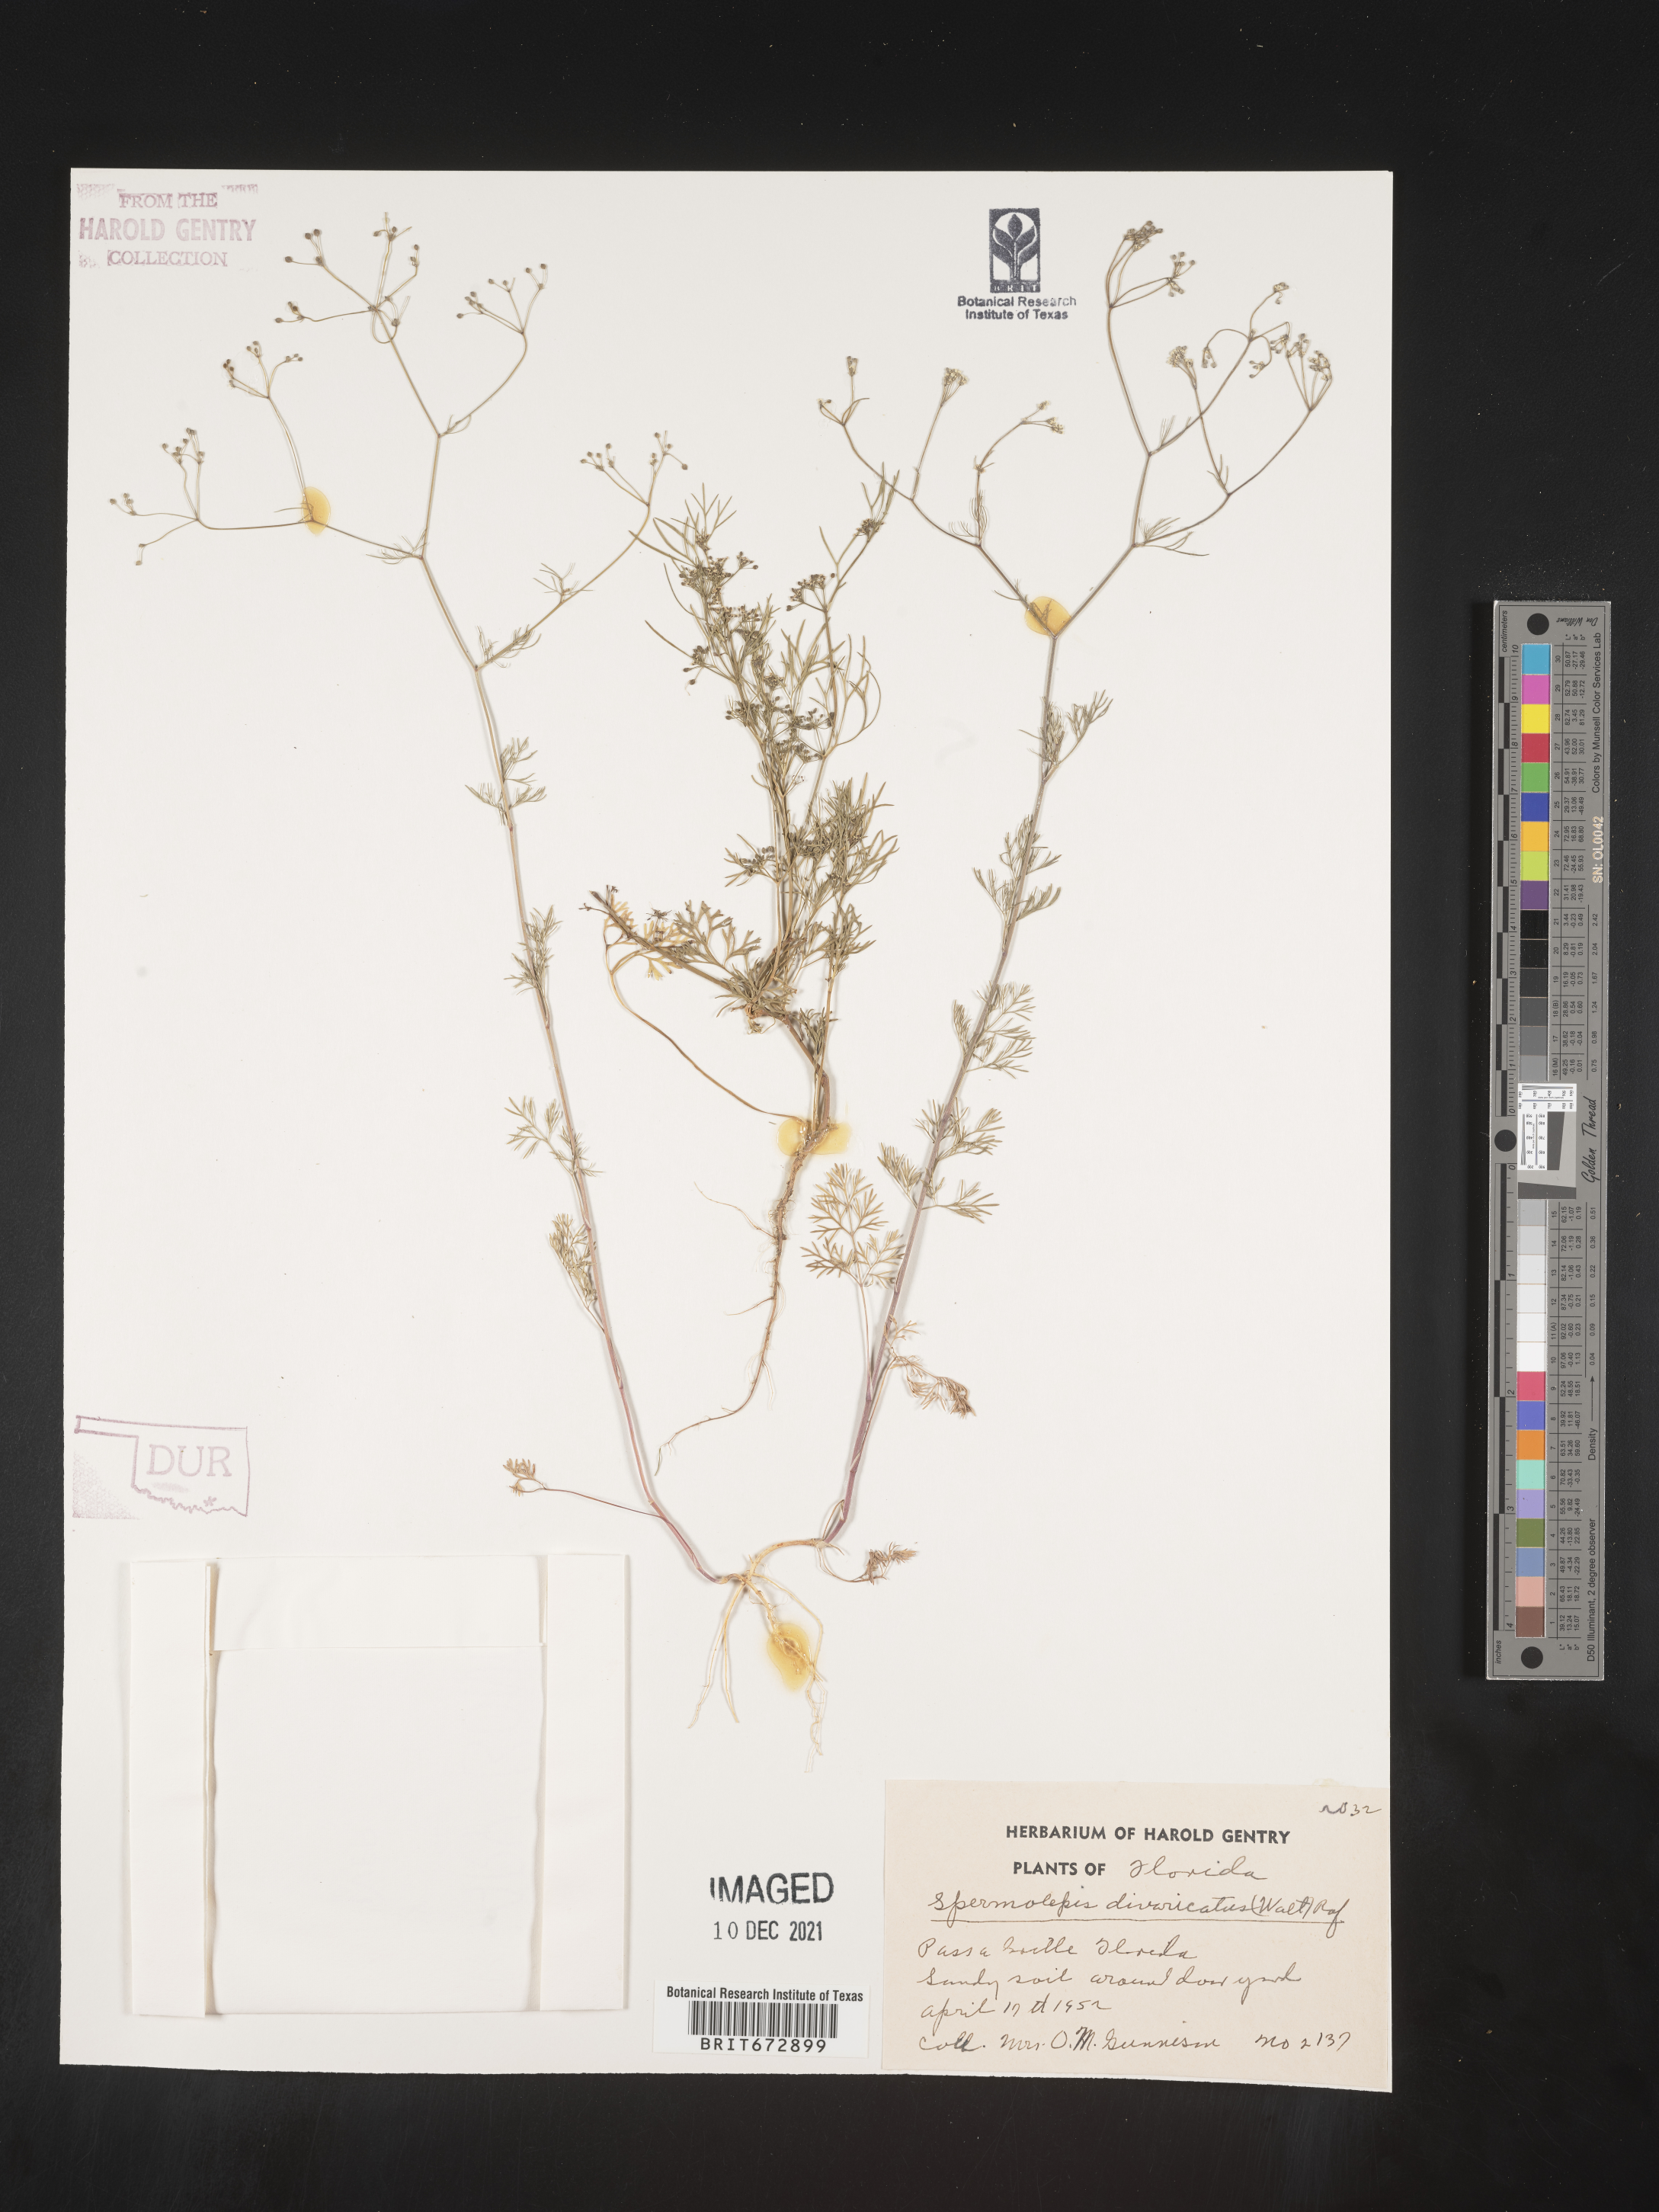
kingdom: Plantae
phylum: Tracheophyta
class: Magnoliopsida
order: Apiales
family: Apiaceae
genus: Spermolepis
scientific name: Spermolepis divaricata
